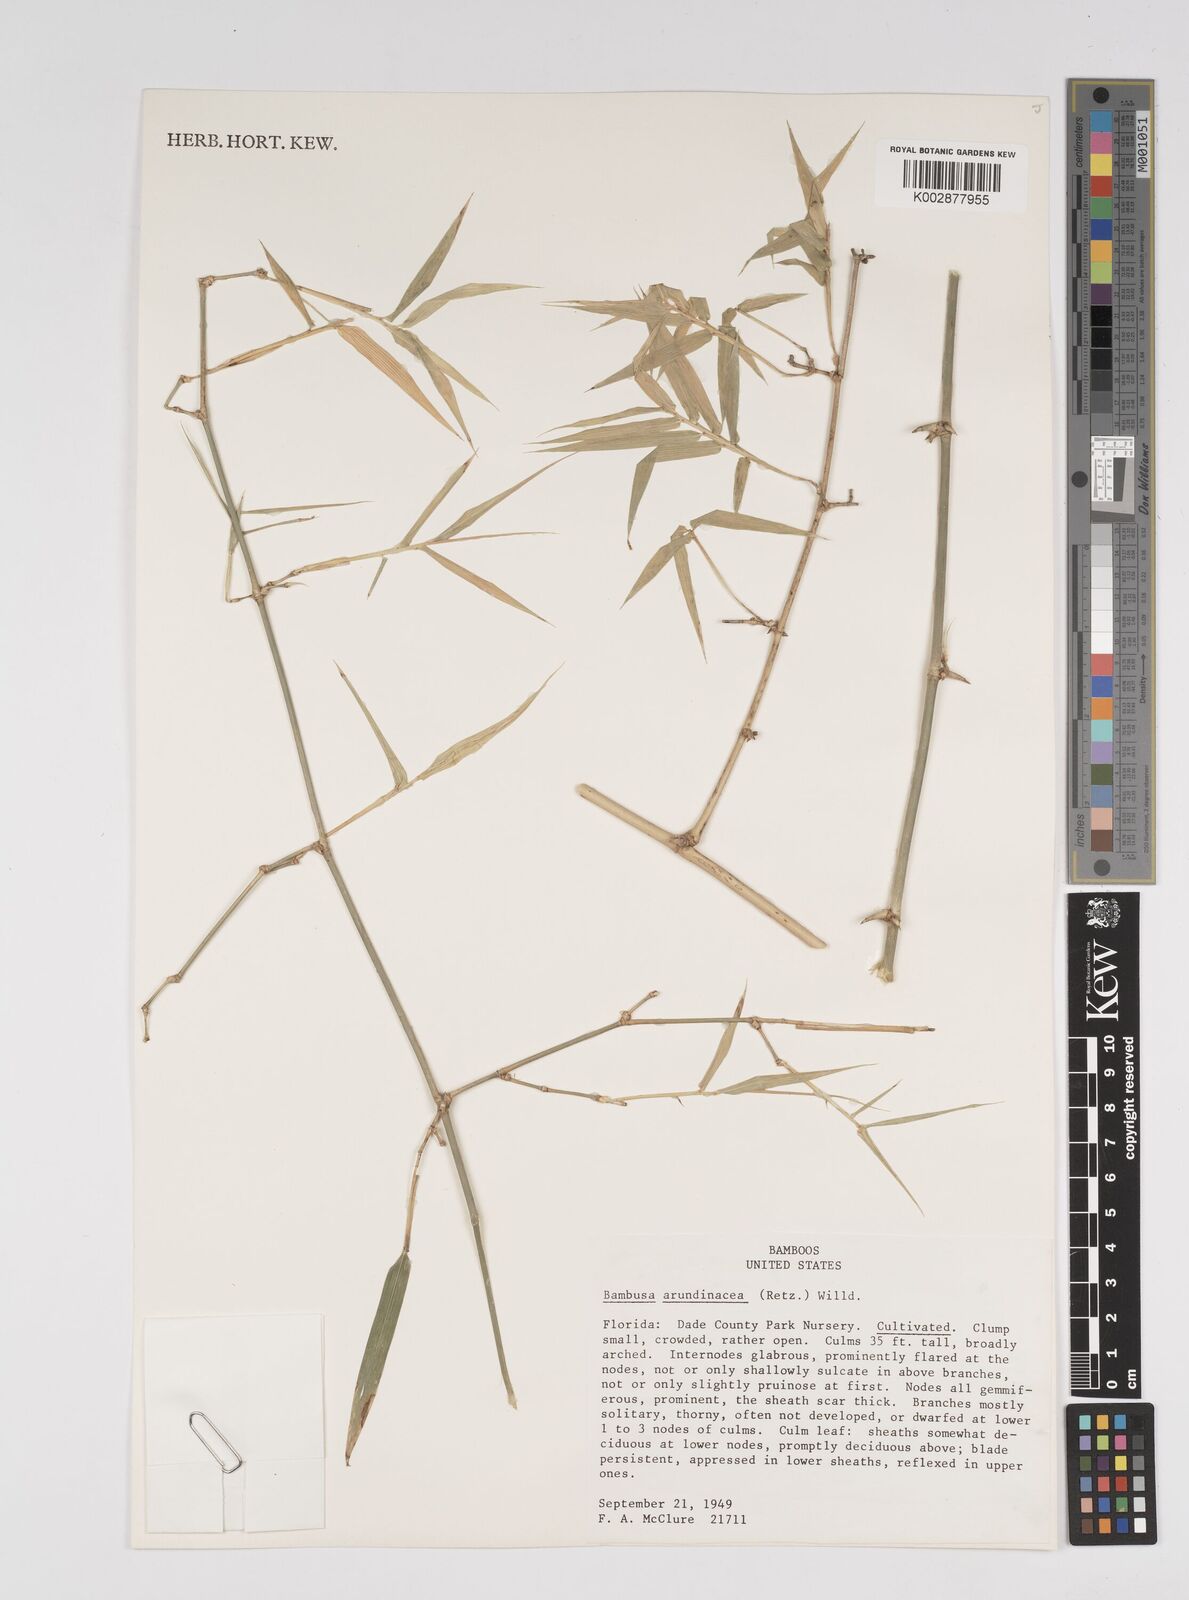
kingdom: Plantae
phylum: Tracheophyta
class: Liliopsida
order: Poales
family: Poaceae
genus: Bambusa
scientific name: Bambusa bambos
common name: Indian thorny bamboo
